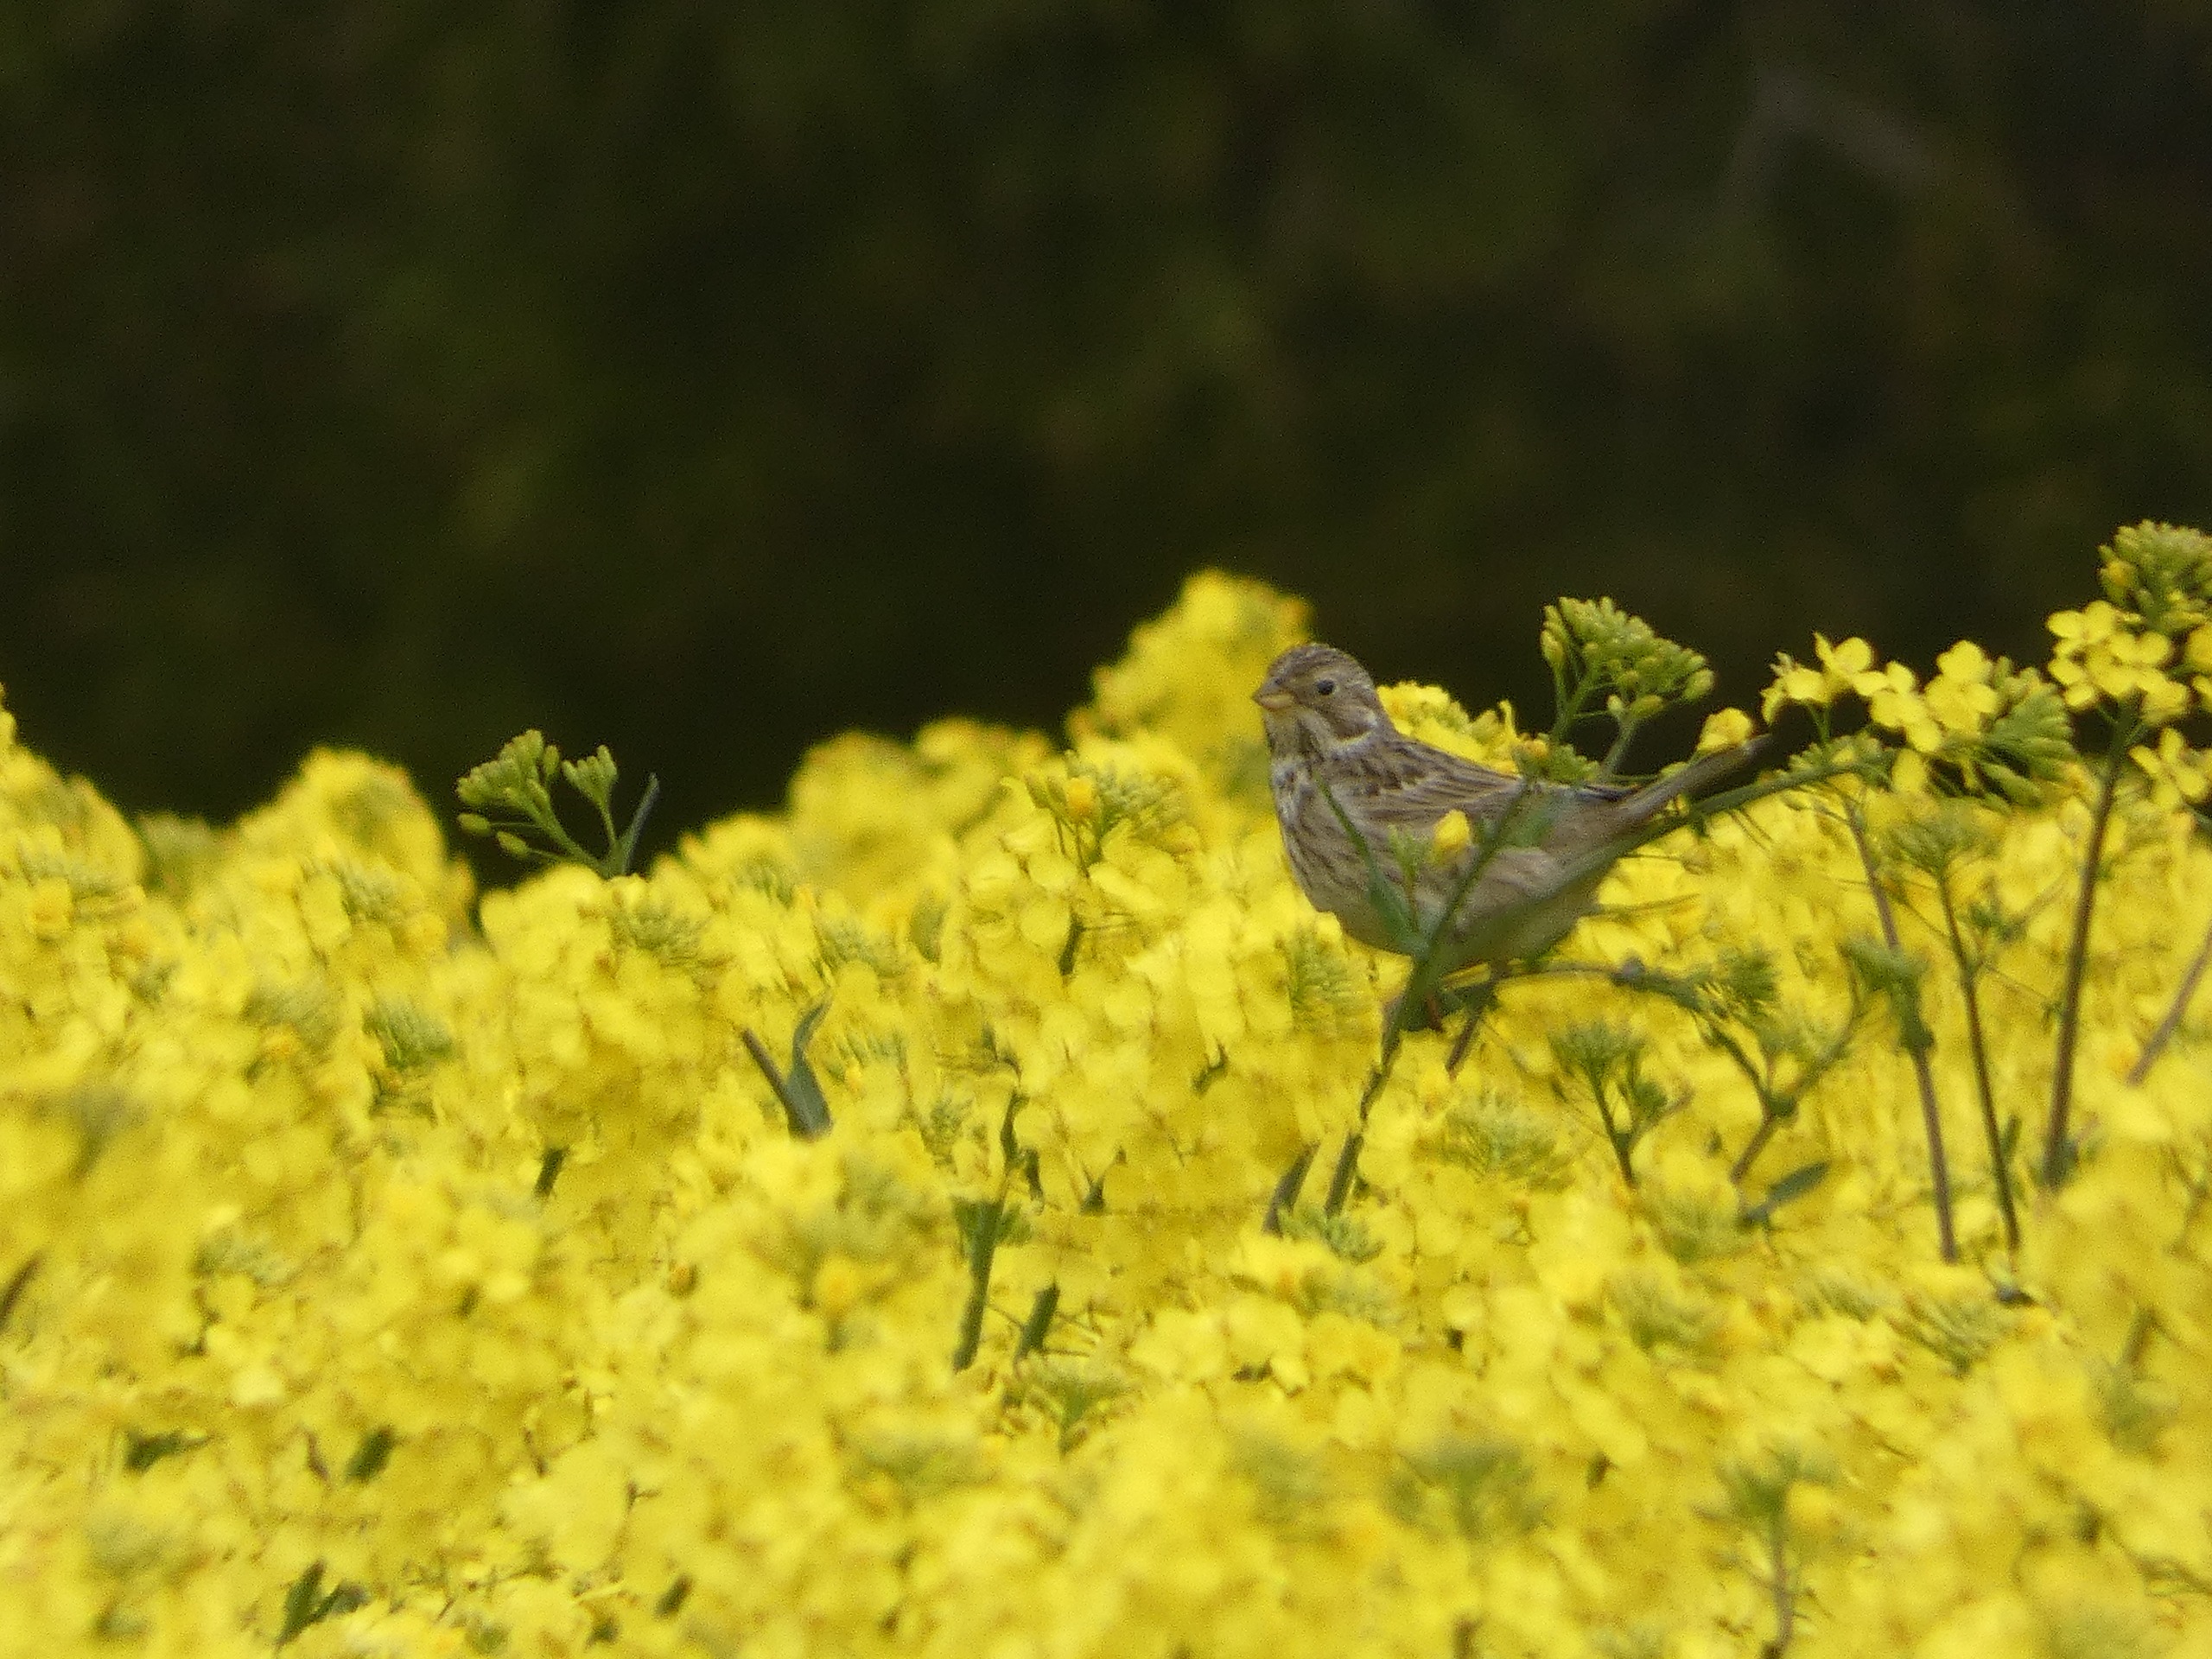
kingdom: Animalia
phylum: Chordata
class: Aves
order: Passeriformes
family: Emberizidae
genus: Emberiza
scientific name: Emberiza calandra
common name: Bomlærke
